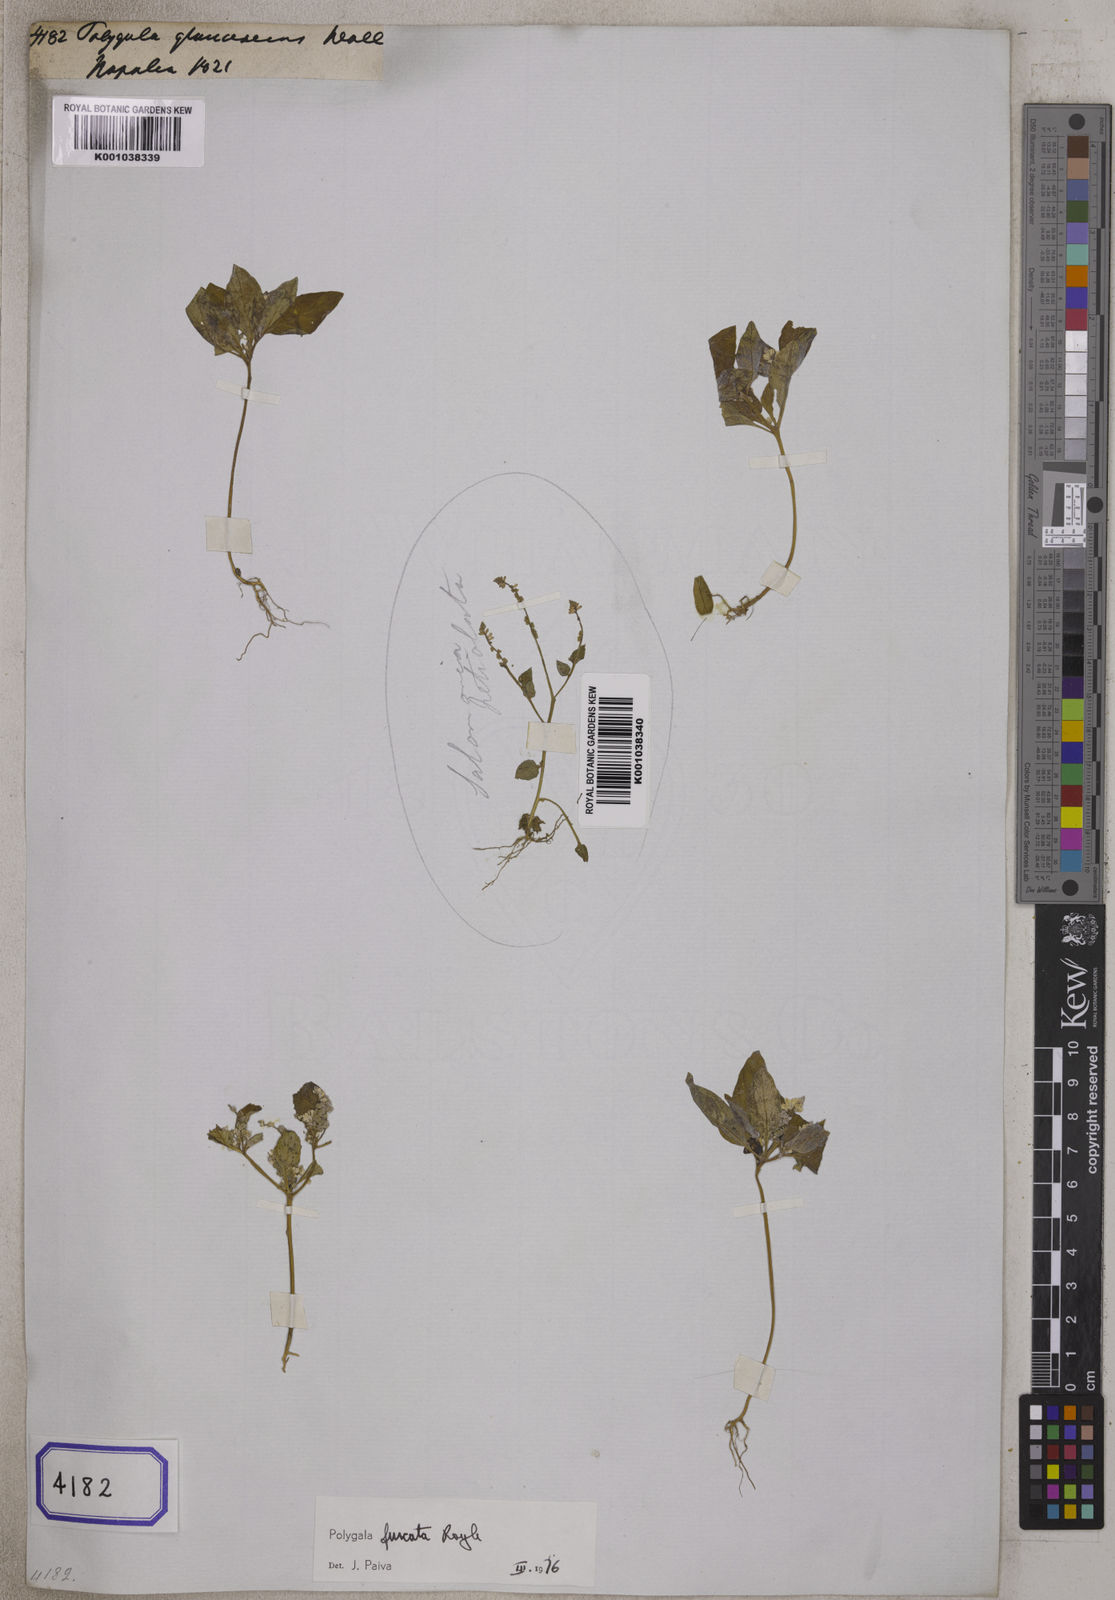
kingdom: Plantae
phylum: Tracheophyta
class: Magnoliopsida
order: Fabales
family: Polygalaceae
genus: Polygala
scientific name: Polygala
